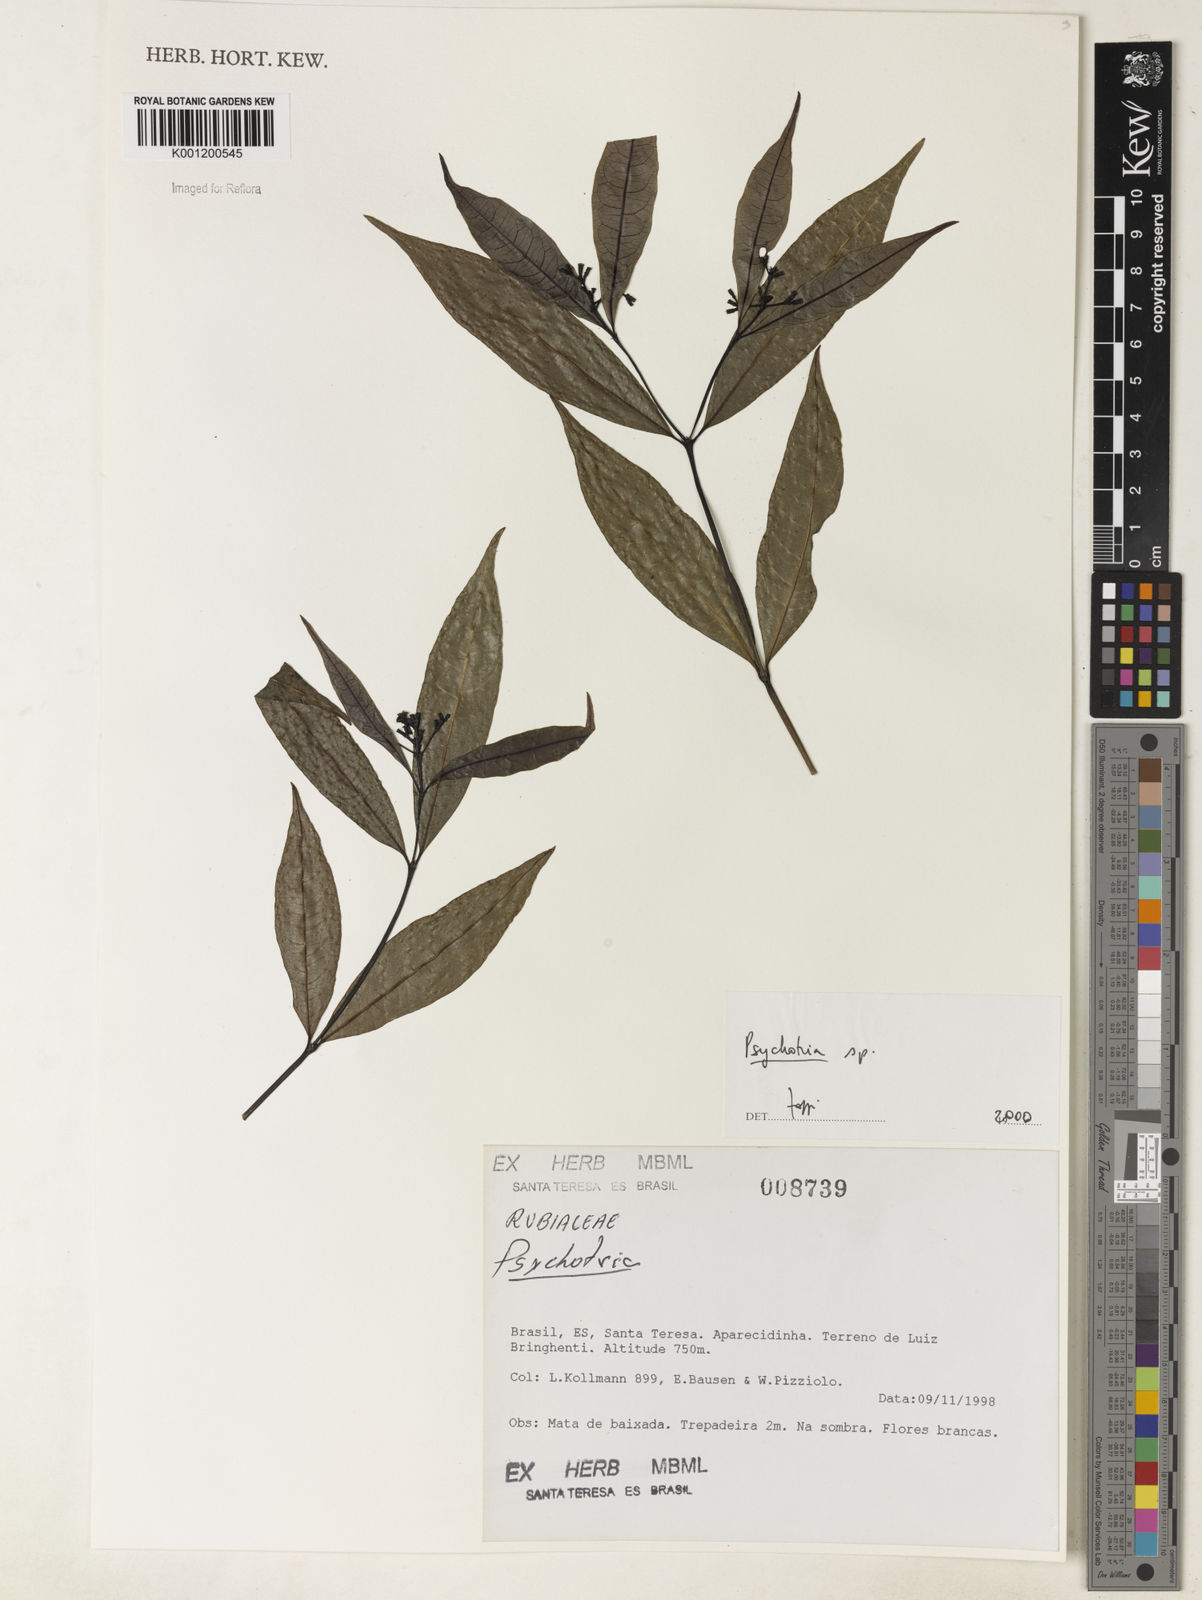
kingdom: Plantae
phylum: Tracheophyta
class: Magnoliopsida
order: Gentianales
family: Rubiaceae
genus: Psychotria
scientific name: Psychotria
